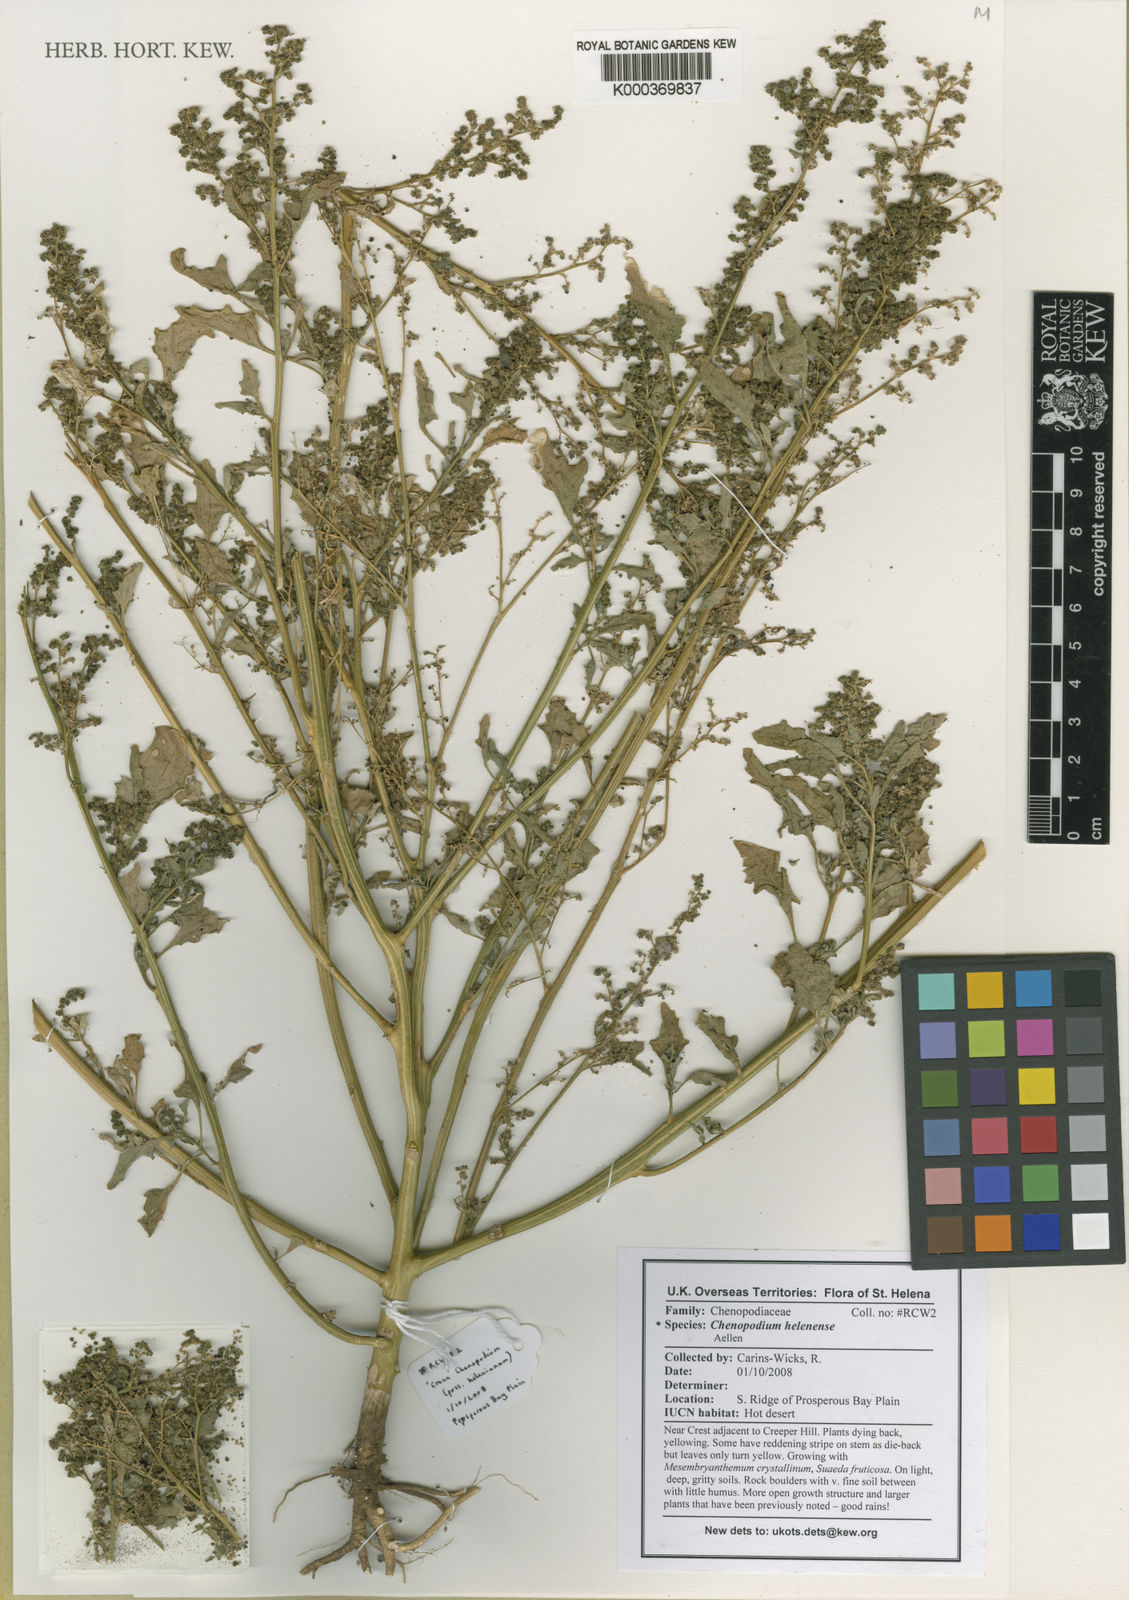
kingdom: Plantae
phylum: Tracheophyta
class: Magnoliopsida
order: Caryophyllales
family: Amaranthaceae
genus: Chenopodiastrum
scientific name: Chenopodiastrum helenense
